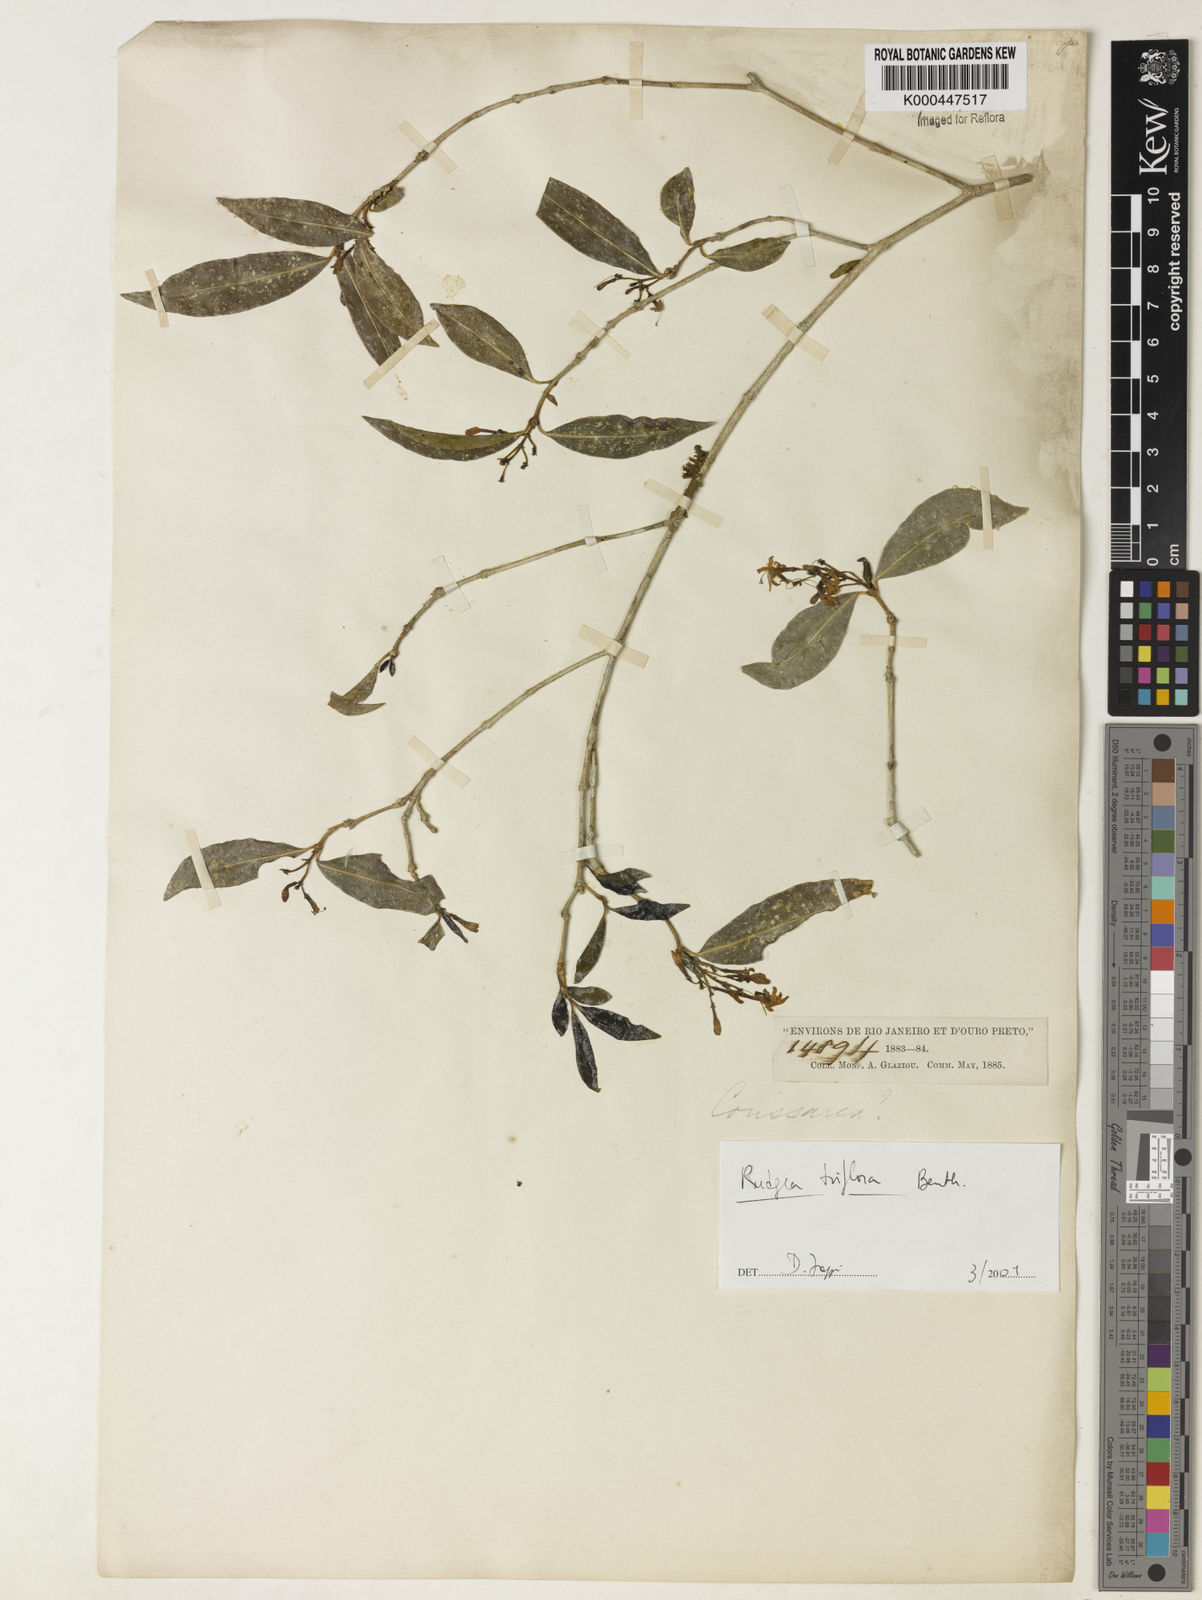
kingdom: Plantae
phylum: Tracheophyta
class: Magnoliopsida
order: Gentianales
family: Rubiaceae
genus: Rudgea
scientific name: Rudgea triflora
